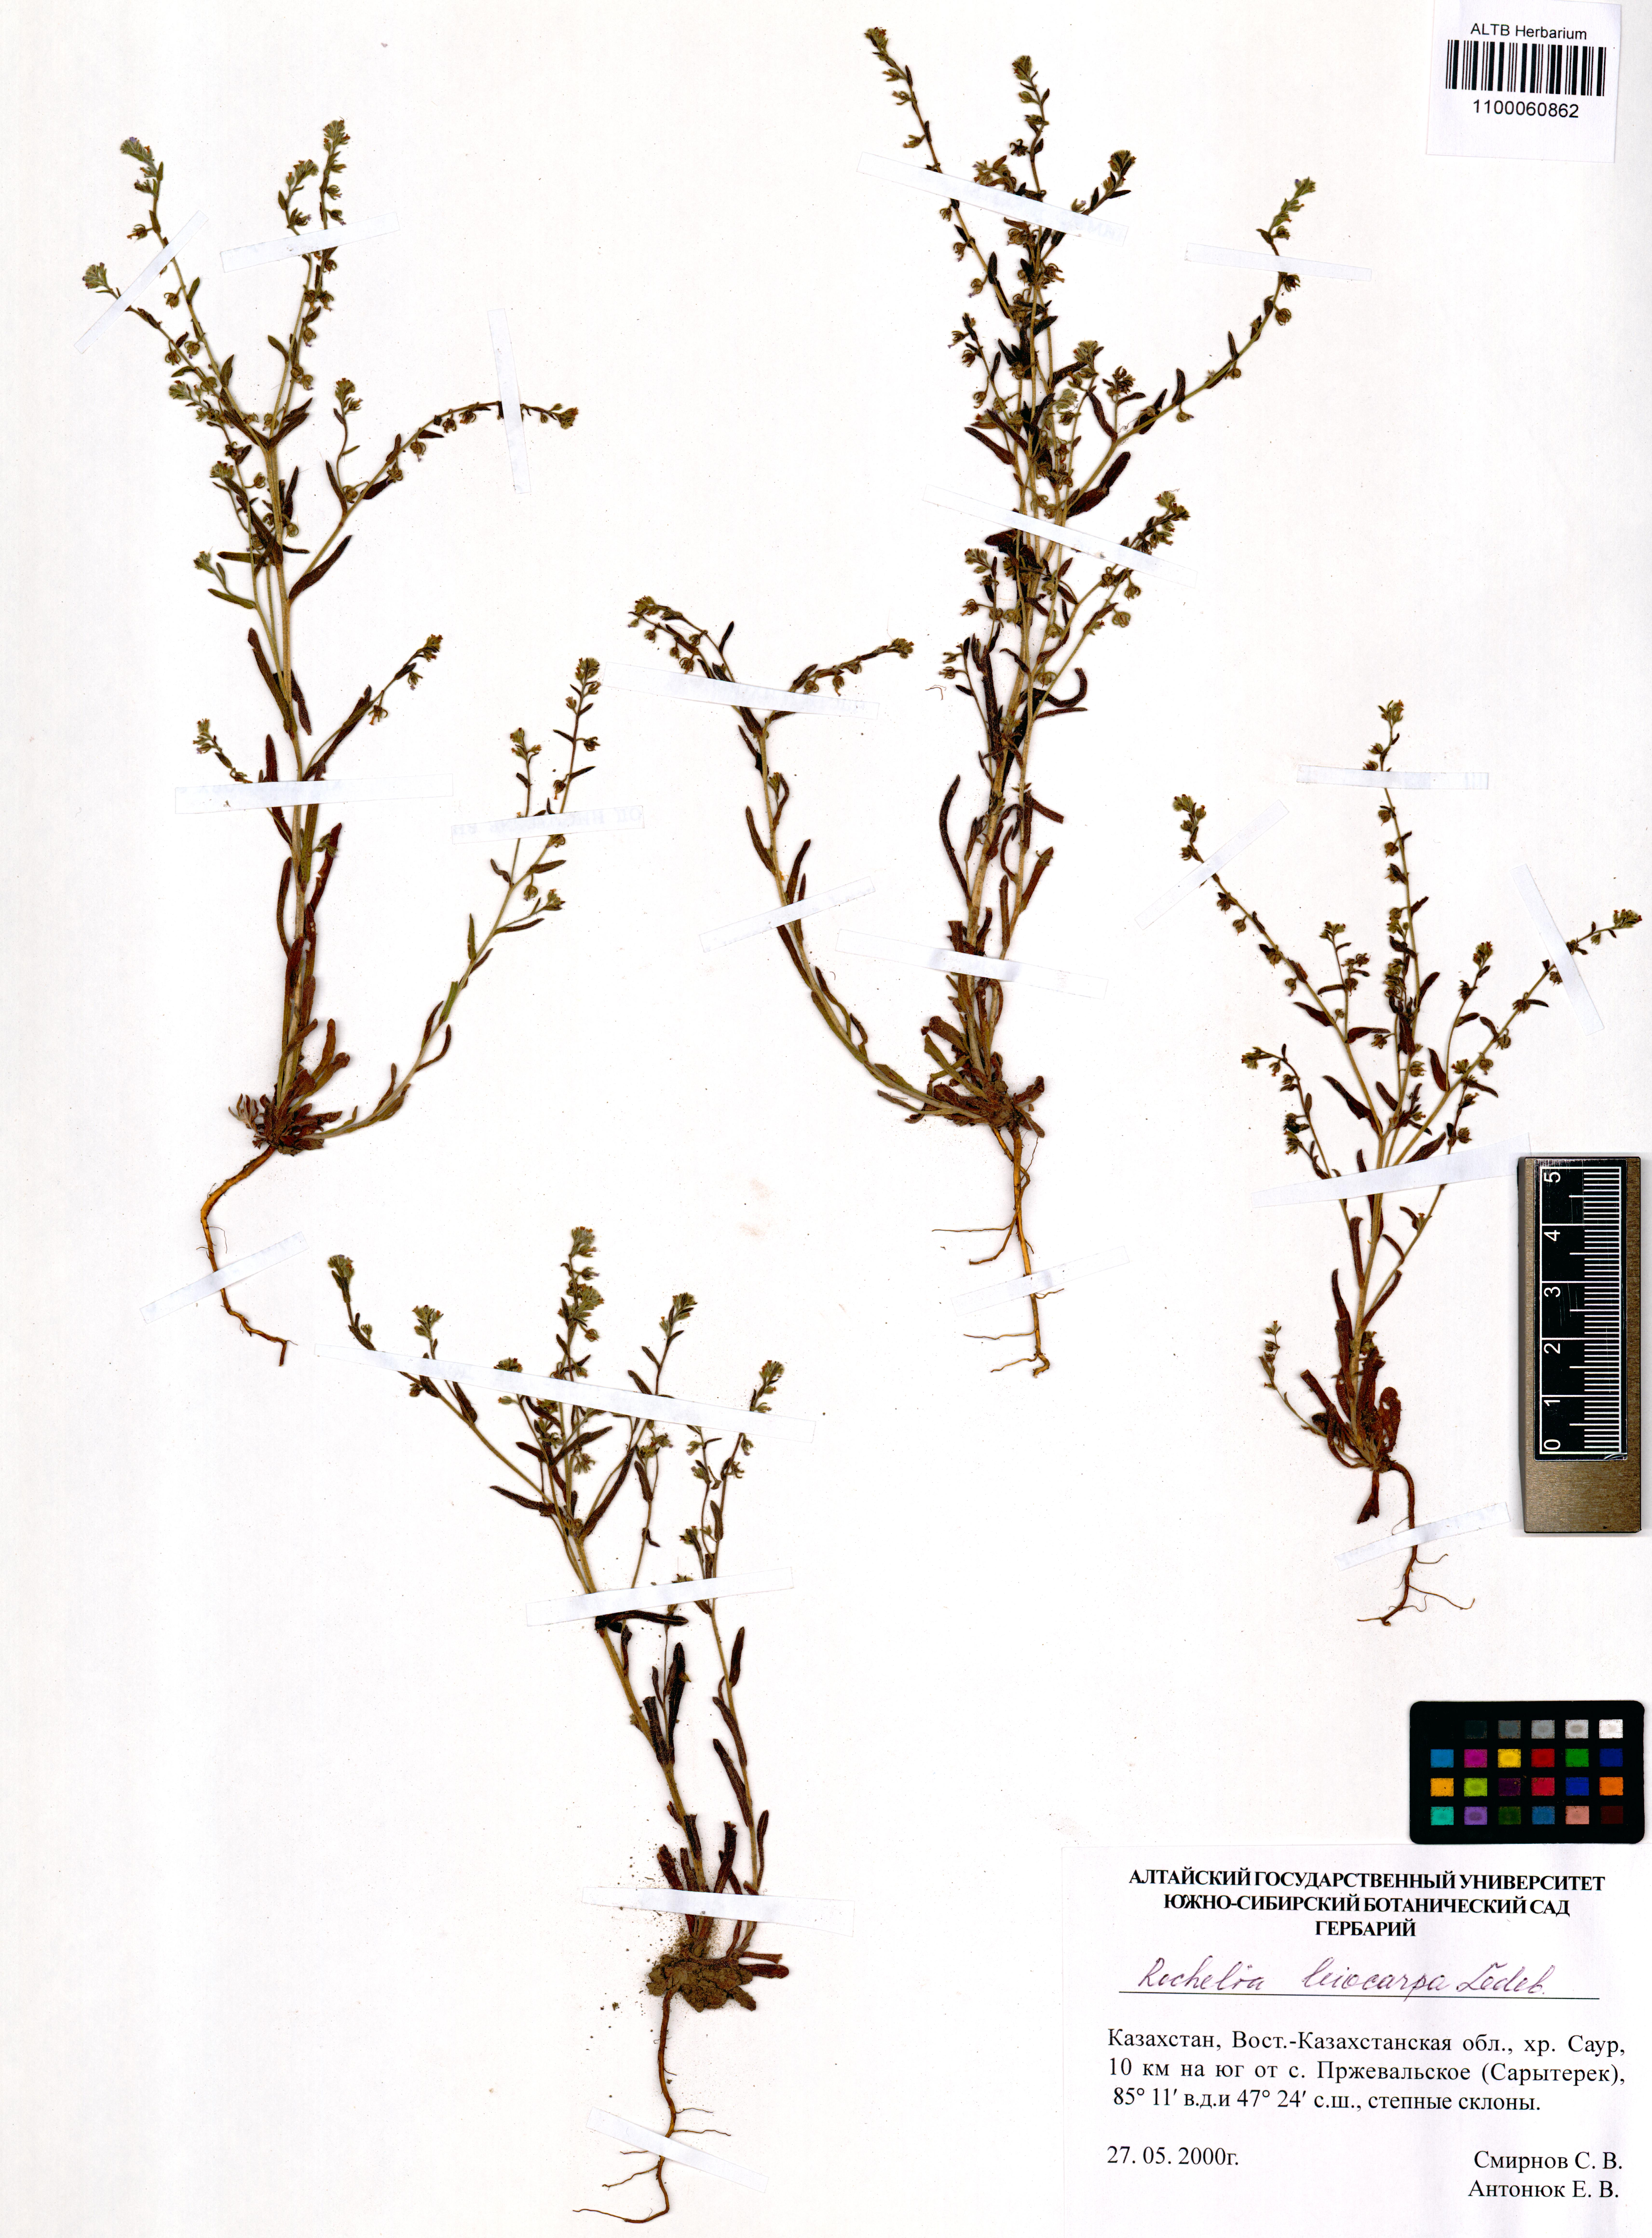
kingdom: Plantae
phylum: Tracheophyta
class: Magnoliopsida
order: Boraginales
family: Boraginaceae
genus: Rochelia
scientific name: Rochelia leiocarpa
